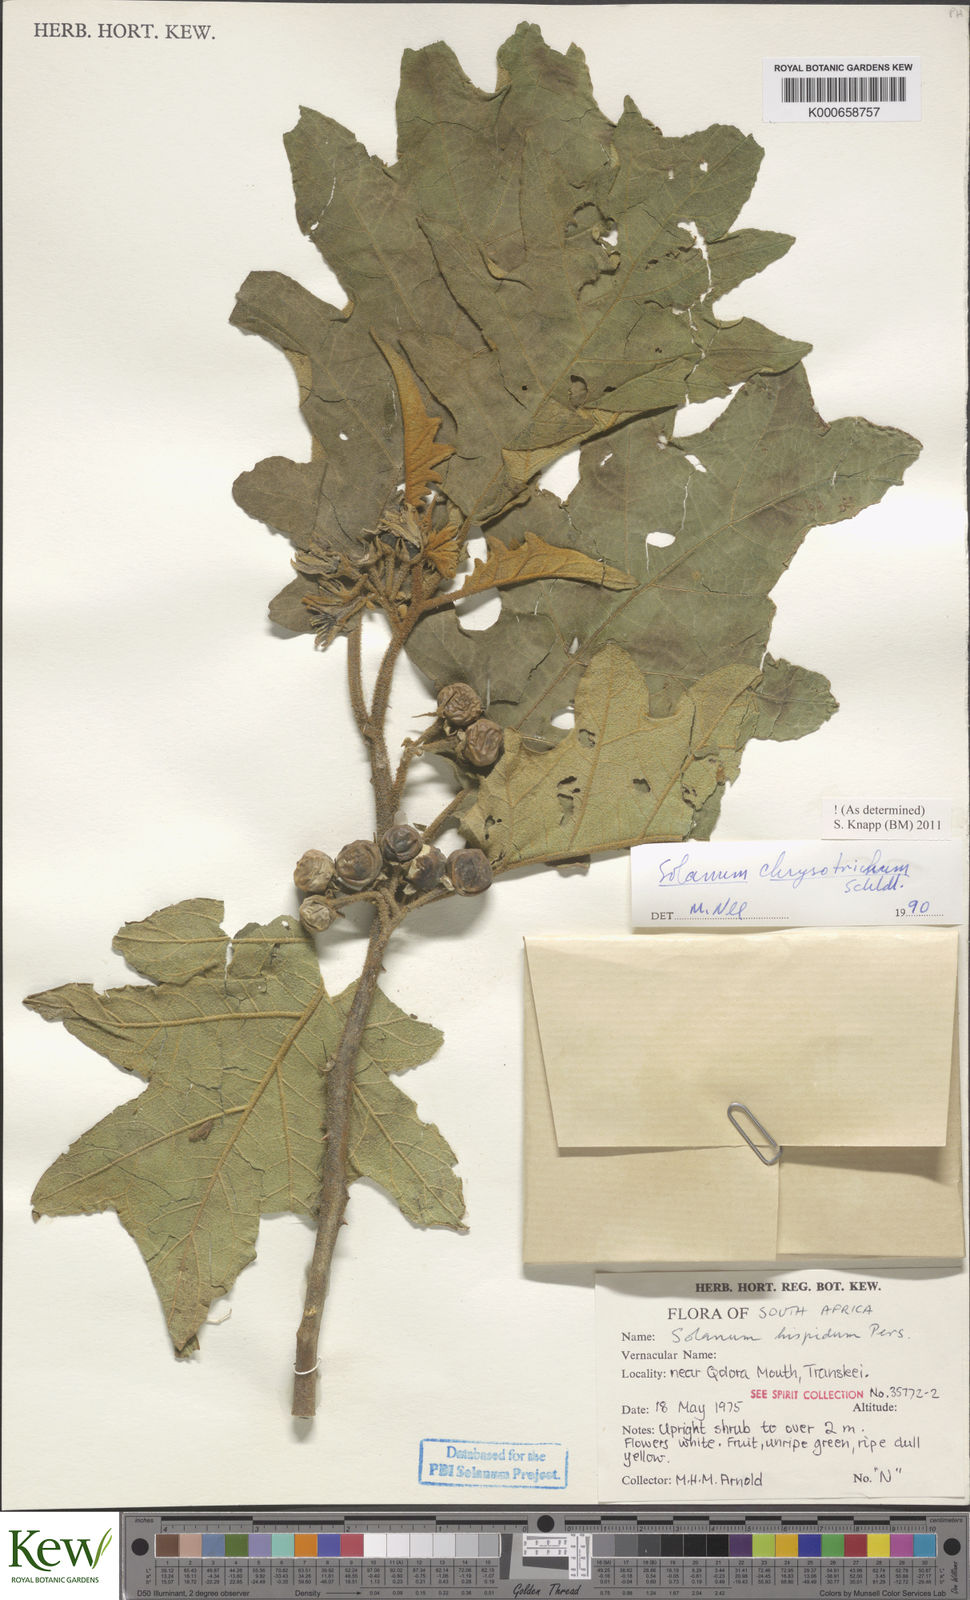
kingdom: Plantae
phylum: Tracheophyta
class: Magnoliopsida
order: Solanales
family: Solanaceae
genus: Solanum
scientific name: Solanum chrysotrichum
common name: Nightshade
